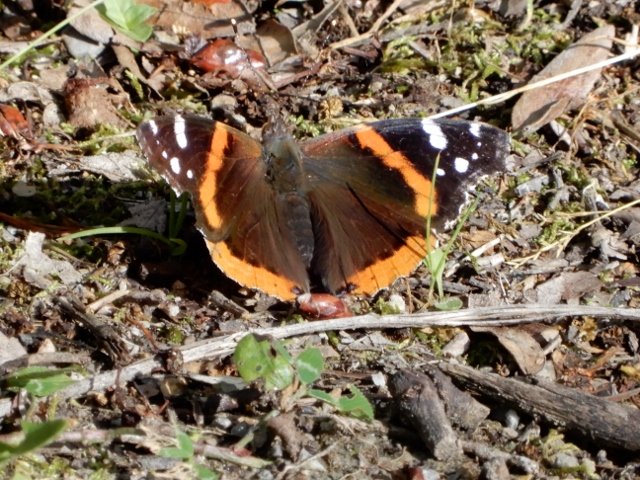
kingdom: Animalia
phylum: Arthropoda
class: Insecta
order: Lepidoptera
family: Nymphalidae
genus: Vanessa
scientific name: Vanessa atalanta
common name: Red Admiral
